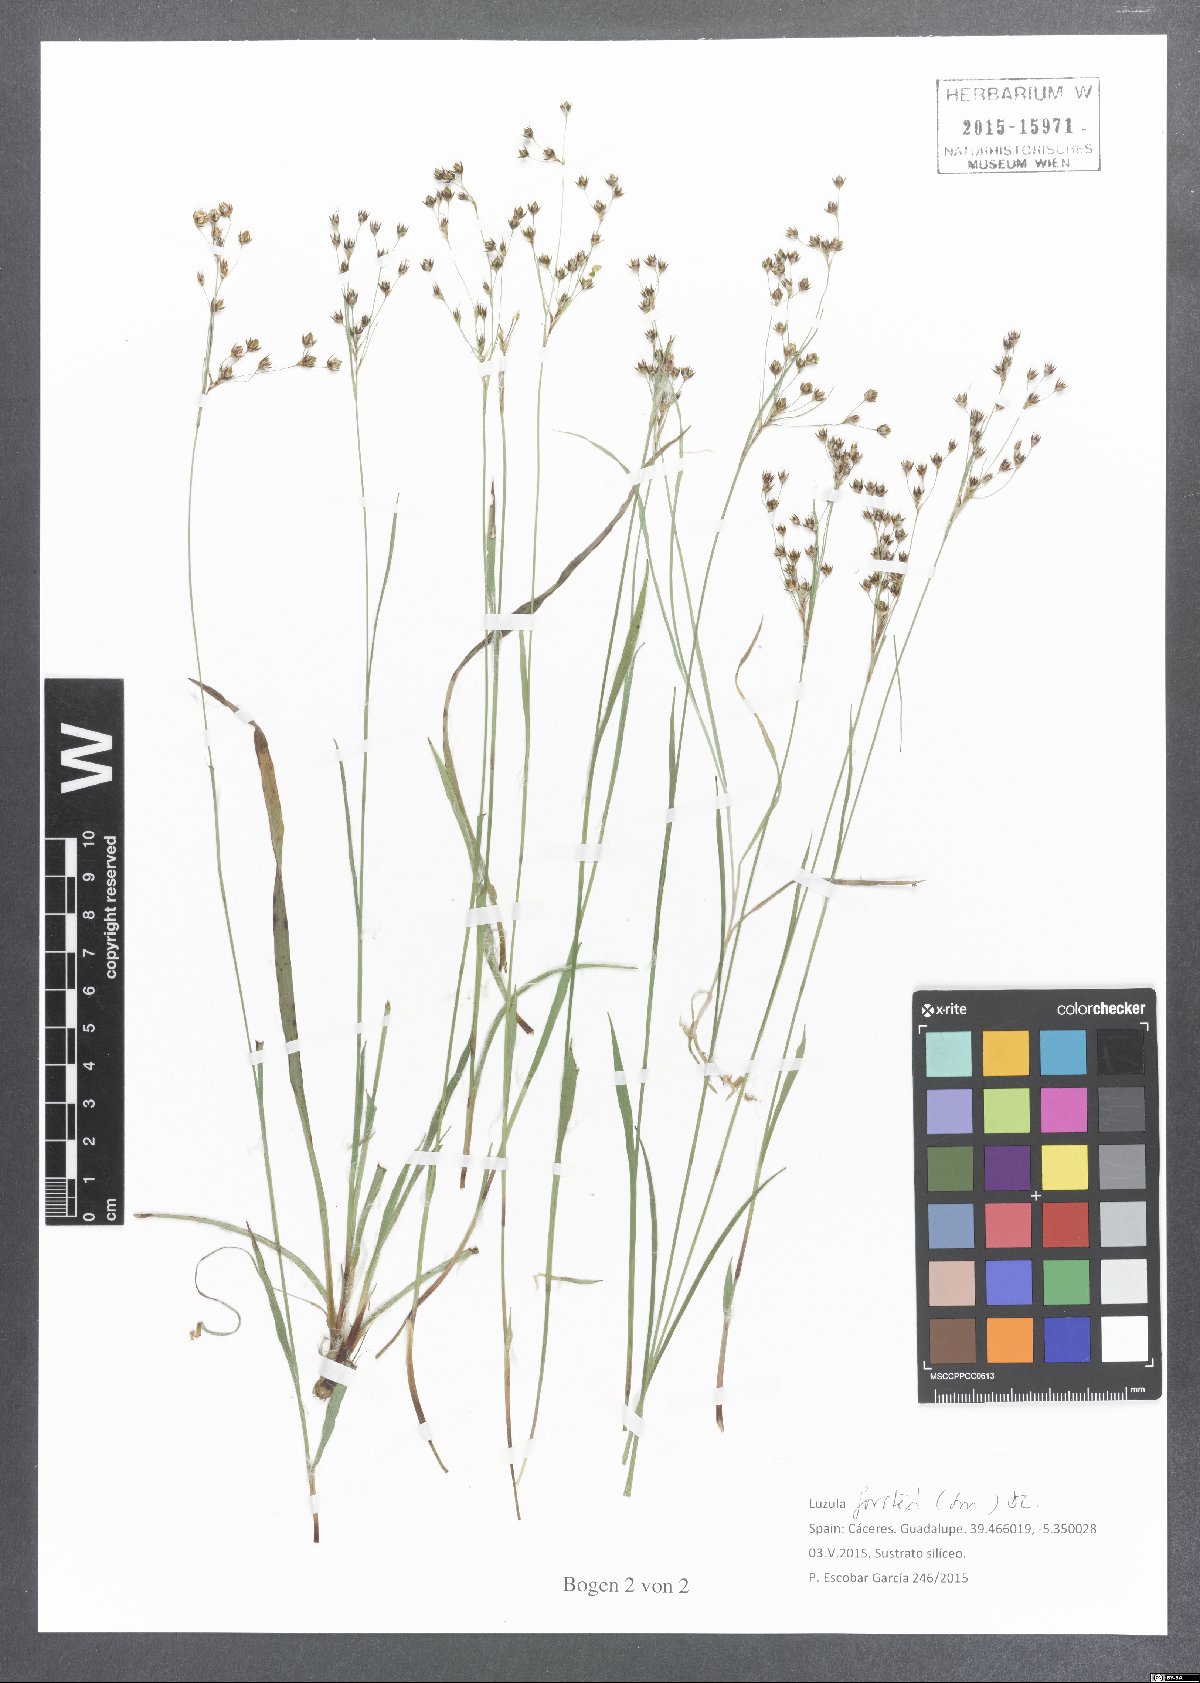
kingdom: Plantae
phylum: Tracheophyta
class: Liliopsida
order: Poales
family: Juncaceae
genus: Luzula
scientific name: Luzula forsteri
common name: Southern wood-rush
